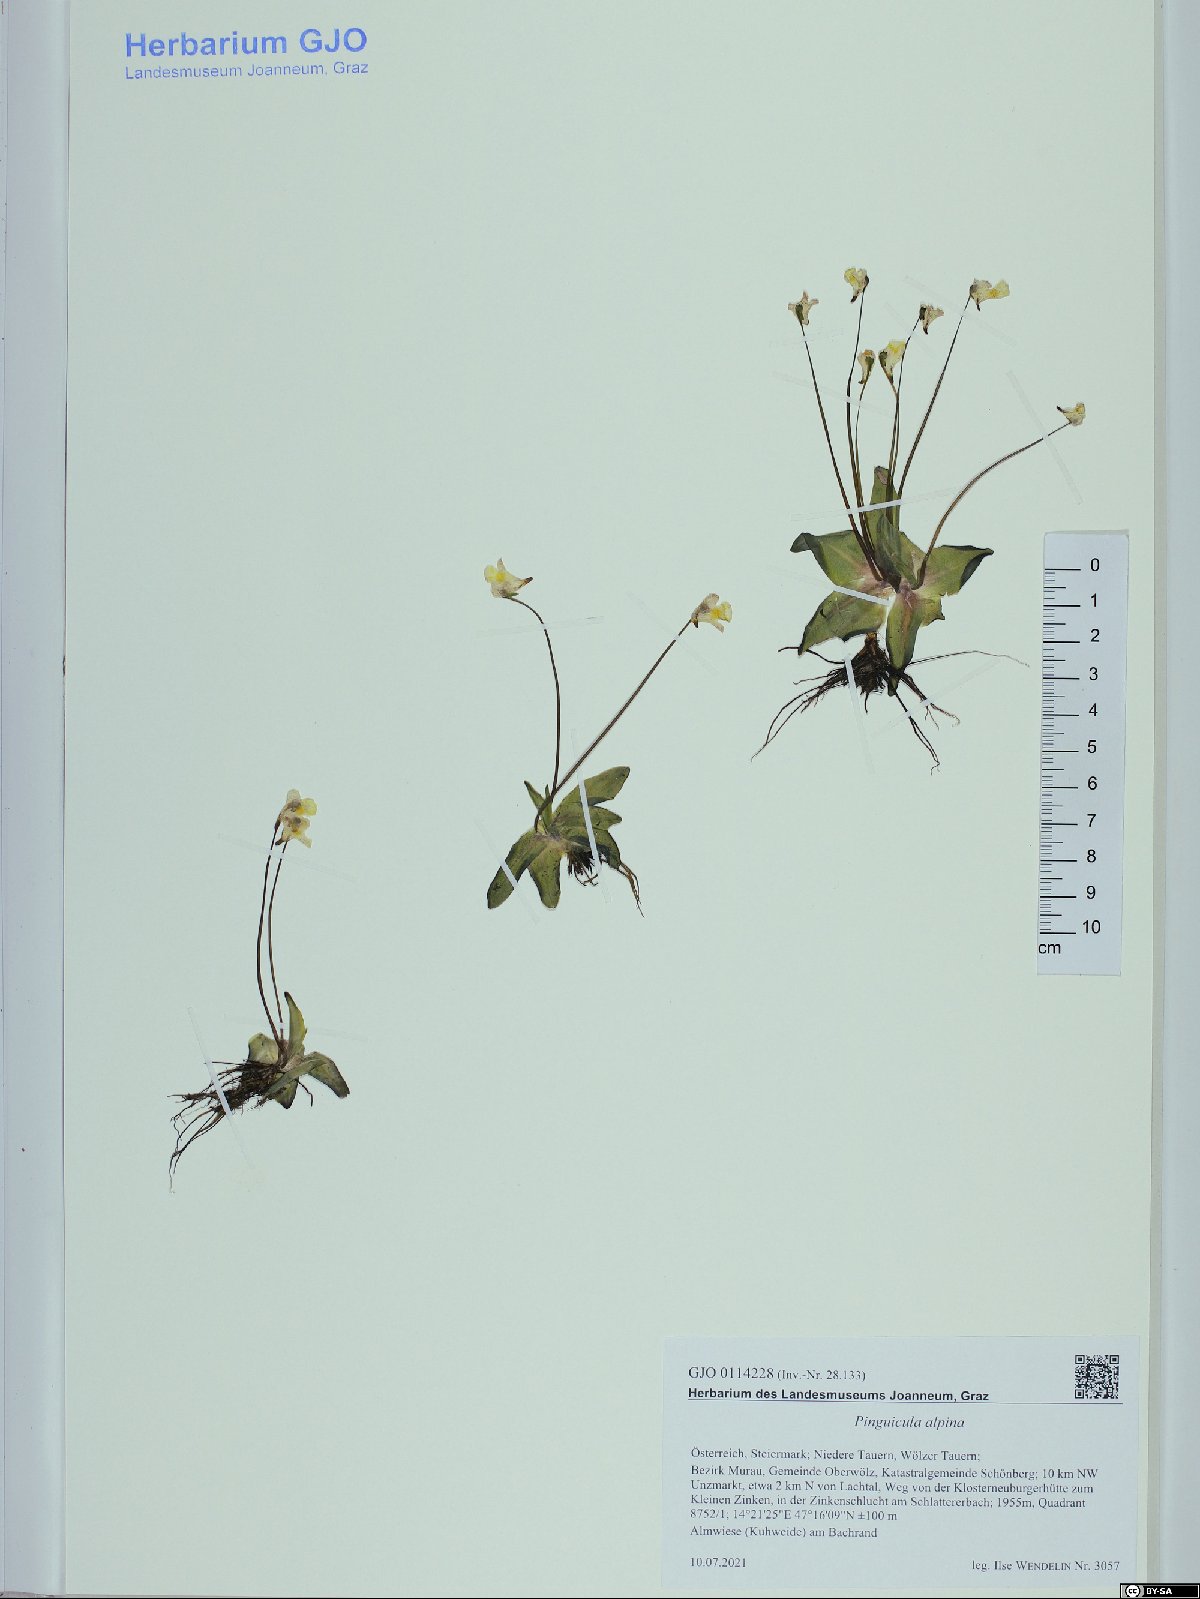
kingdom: Plantae
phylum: Tracheophyta
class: Magnoliopsida
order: Lamiales
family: Lentibulariaceae
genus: Pinguicula
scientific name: Pinguicula alpina
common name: Alpine butterwort
